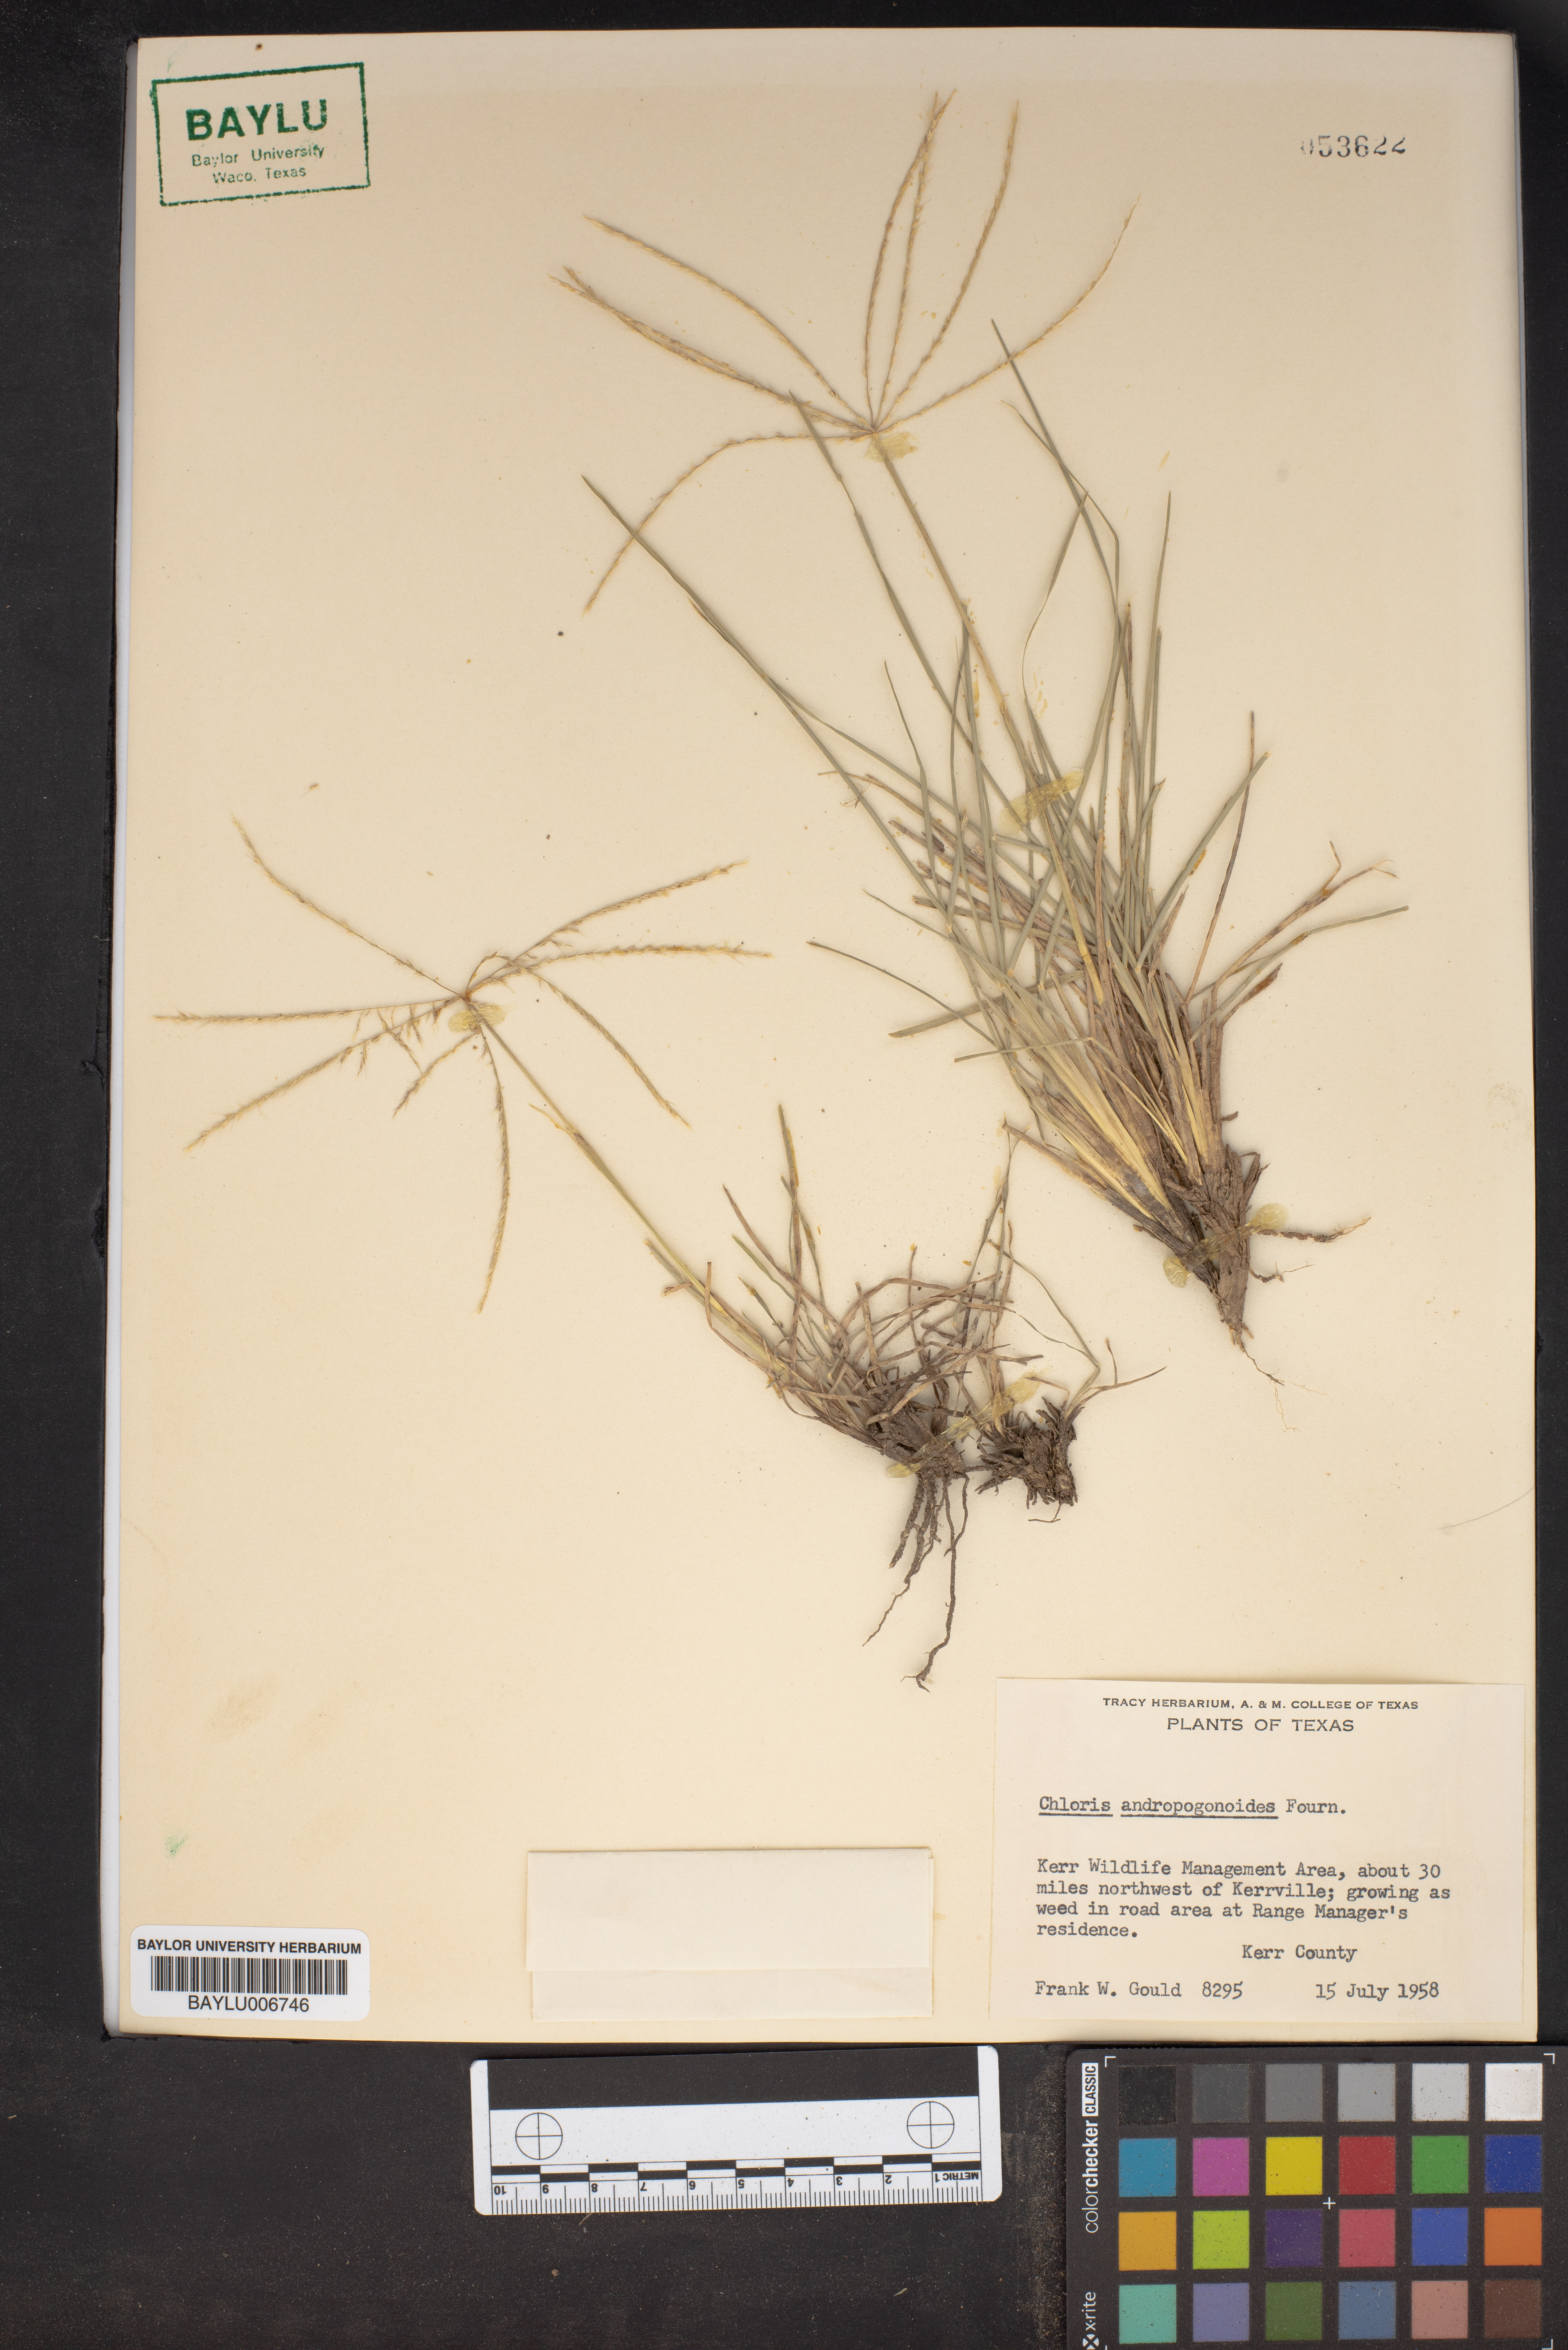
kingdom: Plantae
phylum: Tracheophyta
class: Liliopsida
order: Poales
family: Poaceae
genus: Chloris
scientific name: Chloris andropogonoides
